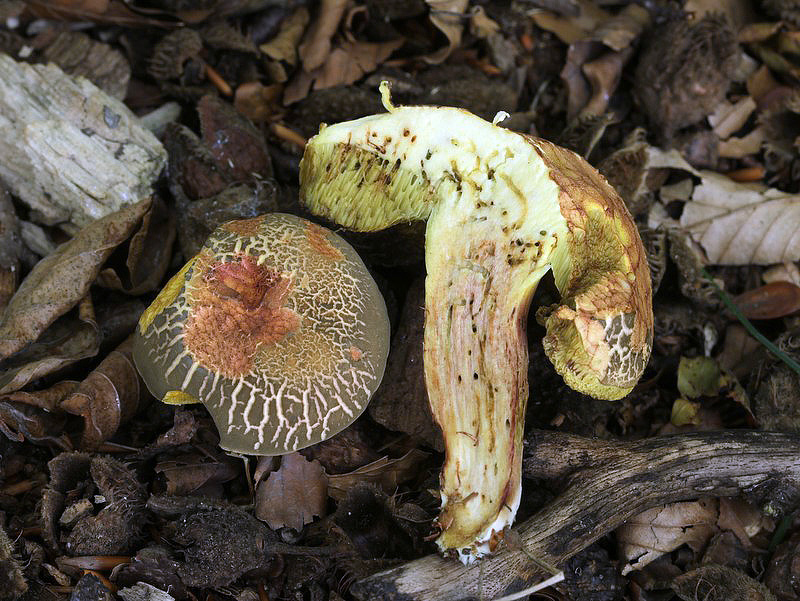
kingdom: Fungi
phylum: Basidiomycota
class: Agaricomycetes
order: Boletales
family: Boletaceae
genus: Xerocomellus
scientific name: Xerocomellus chrysenteron
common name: rødsprukken rørhat
